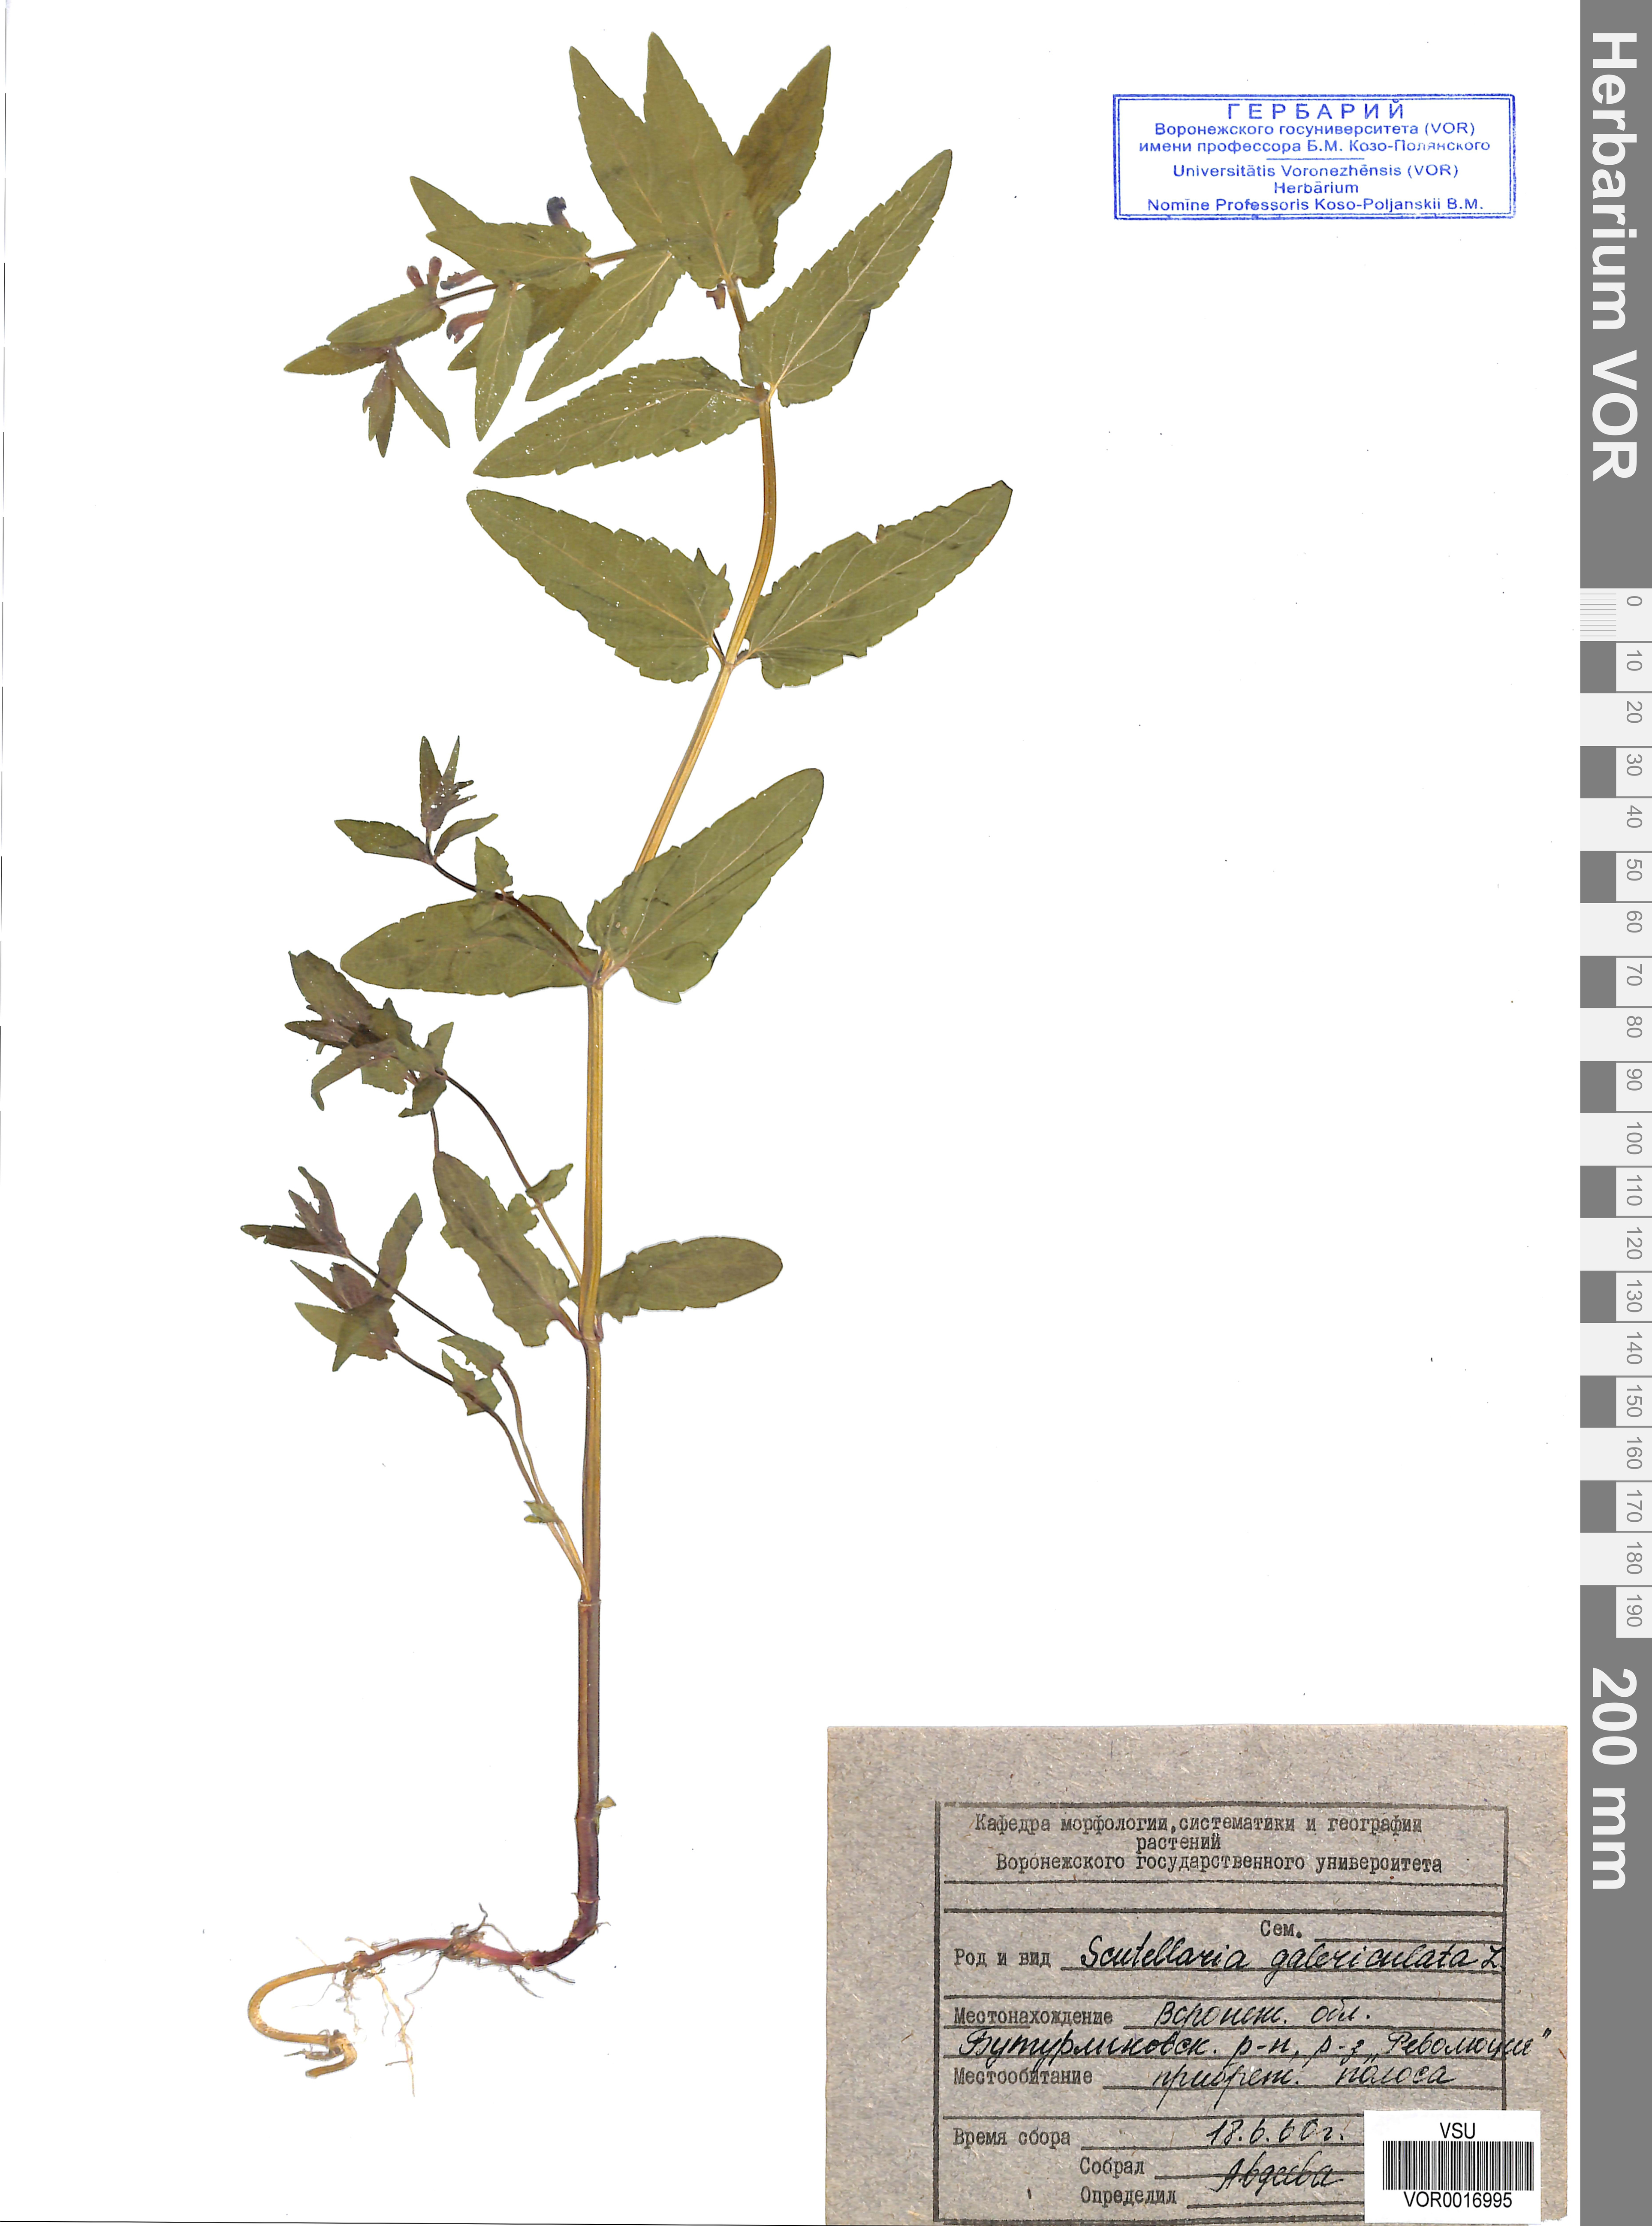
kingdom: Plantae
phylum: Tracheophyta
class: Magnoliopsida
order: Lamiales
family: Lamiaceae
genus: Scutellaria
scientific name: Scutellaria galericulata
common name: Skullcap
